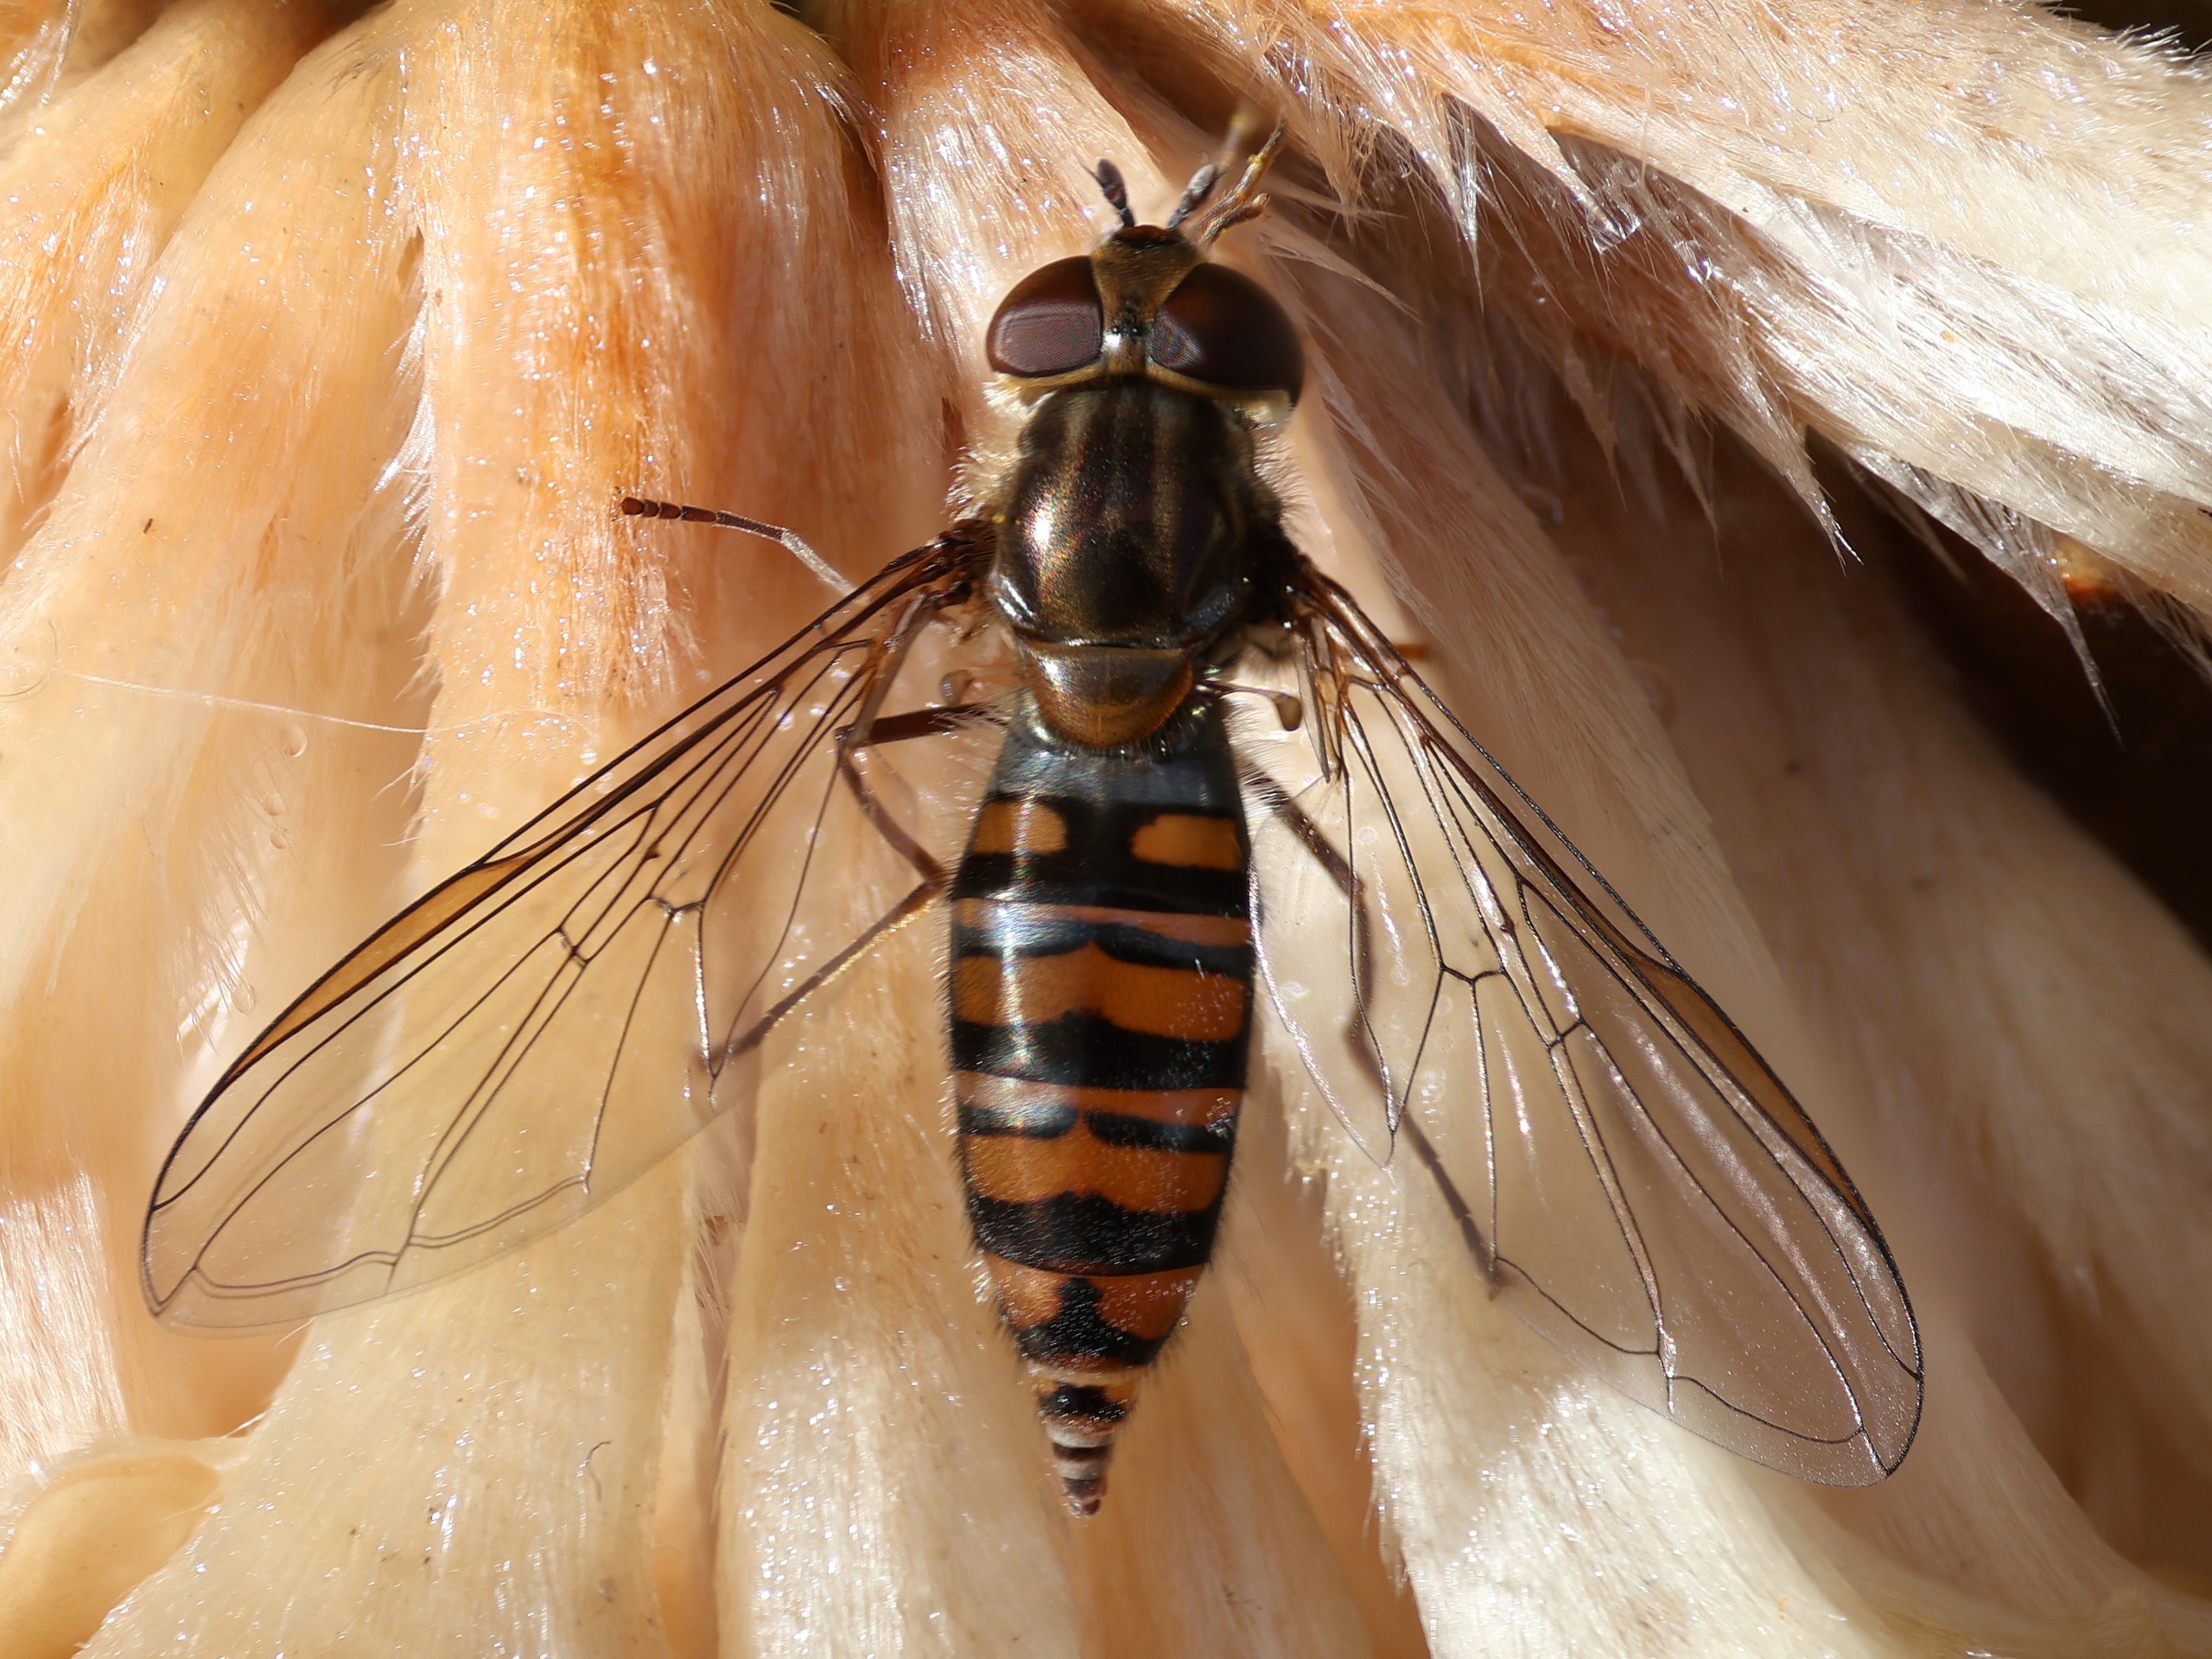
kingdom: Animalia
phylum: Arthropoda
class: Insecta
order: Diptera
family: Syrphidae
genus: Episyrphus
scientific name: Episyrphus balteatus
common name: Dobbeltbåndet svirreflue
